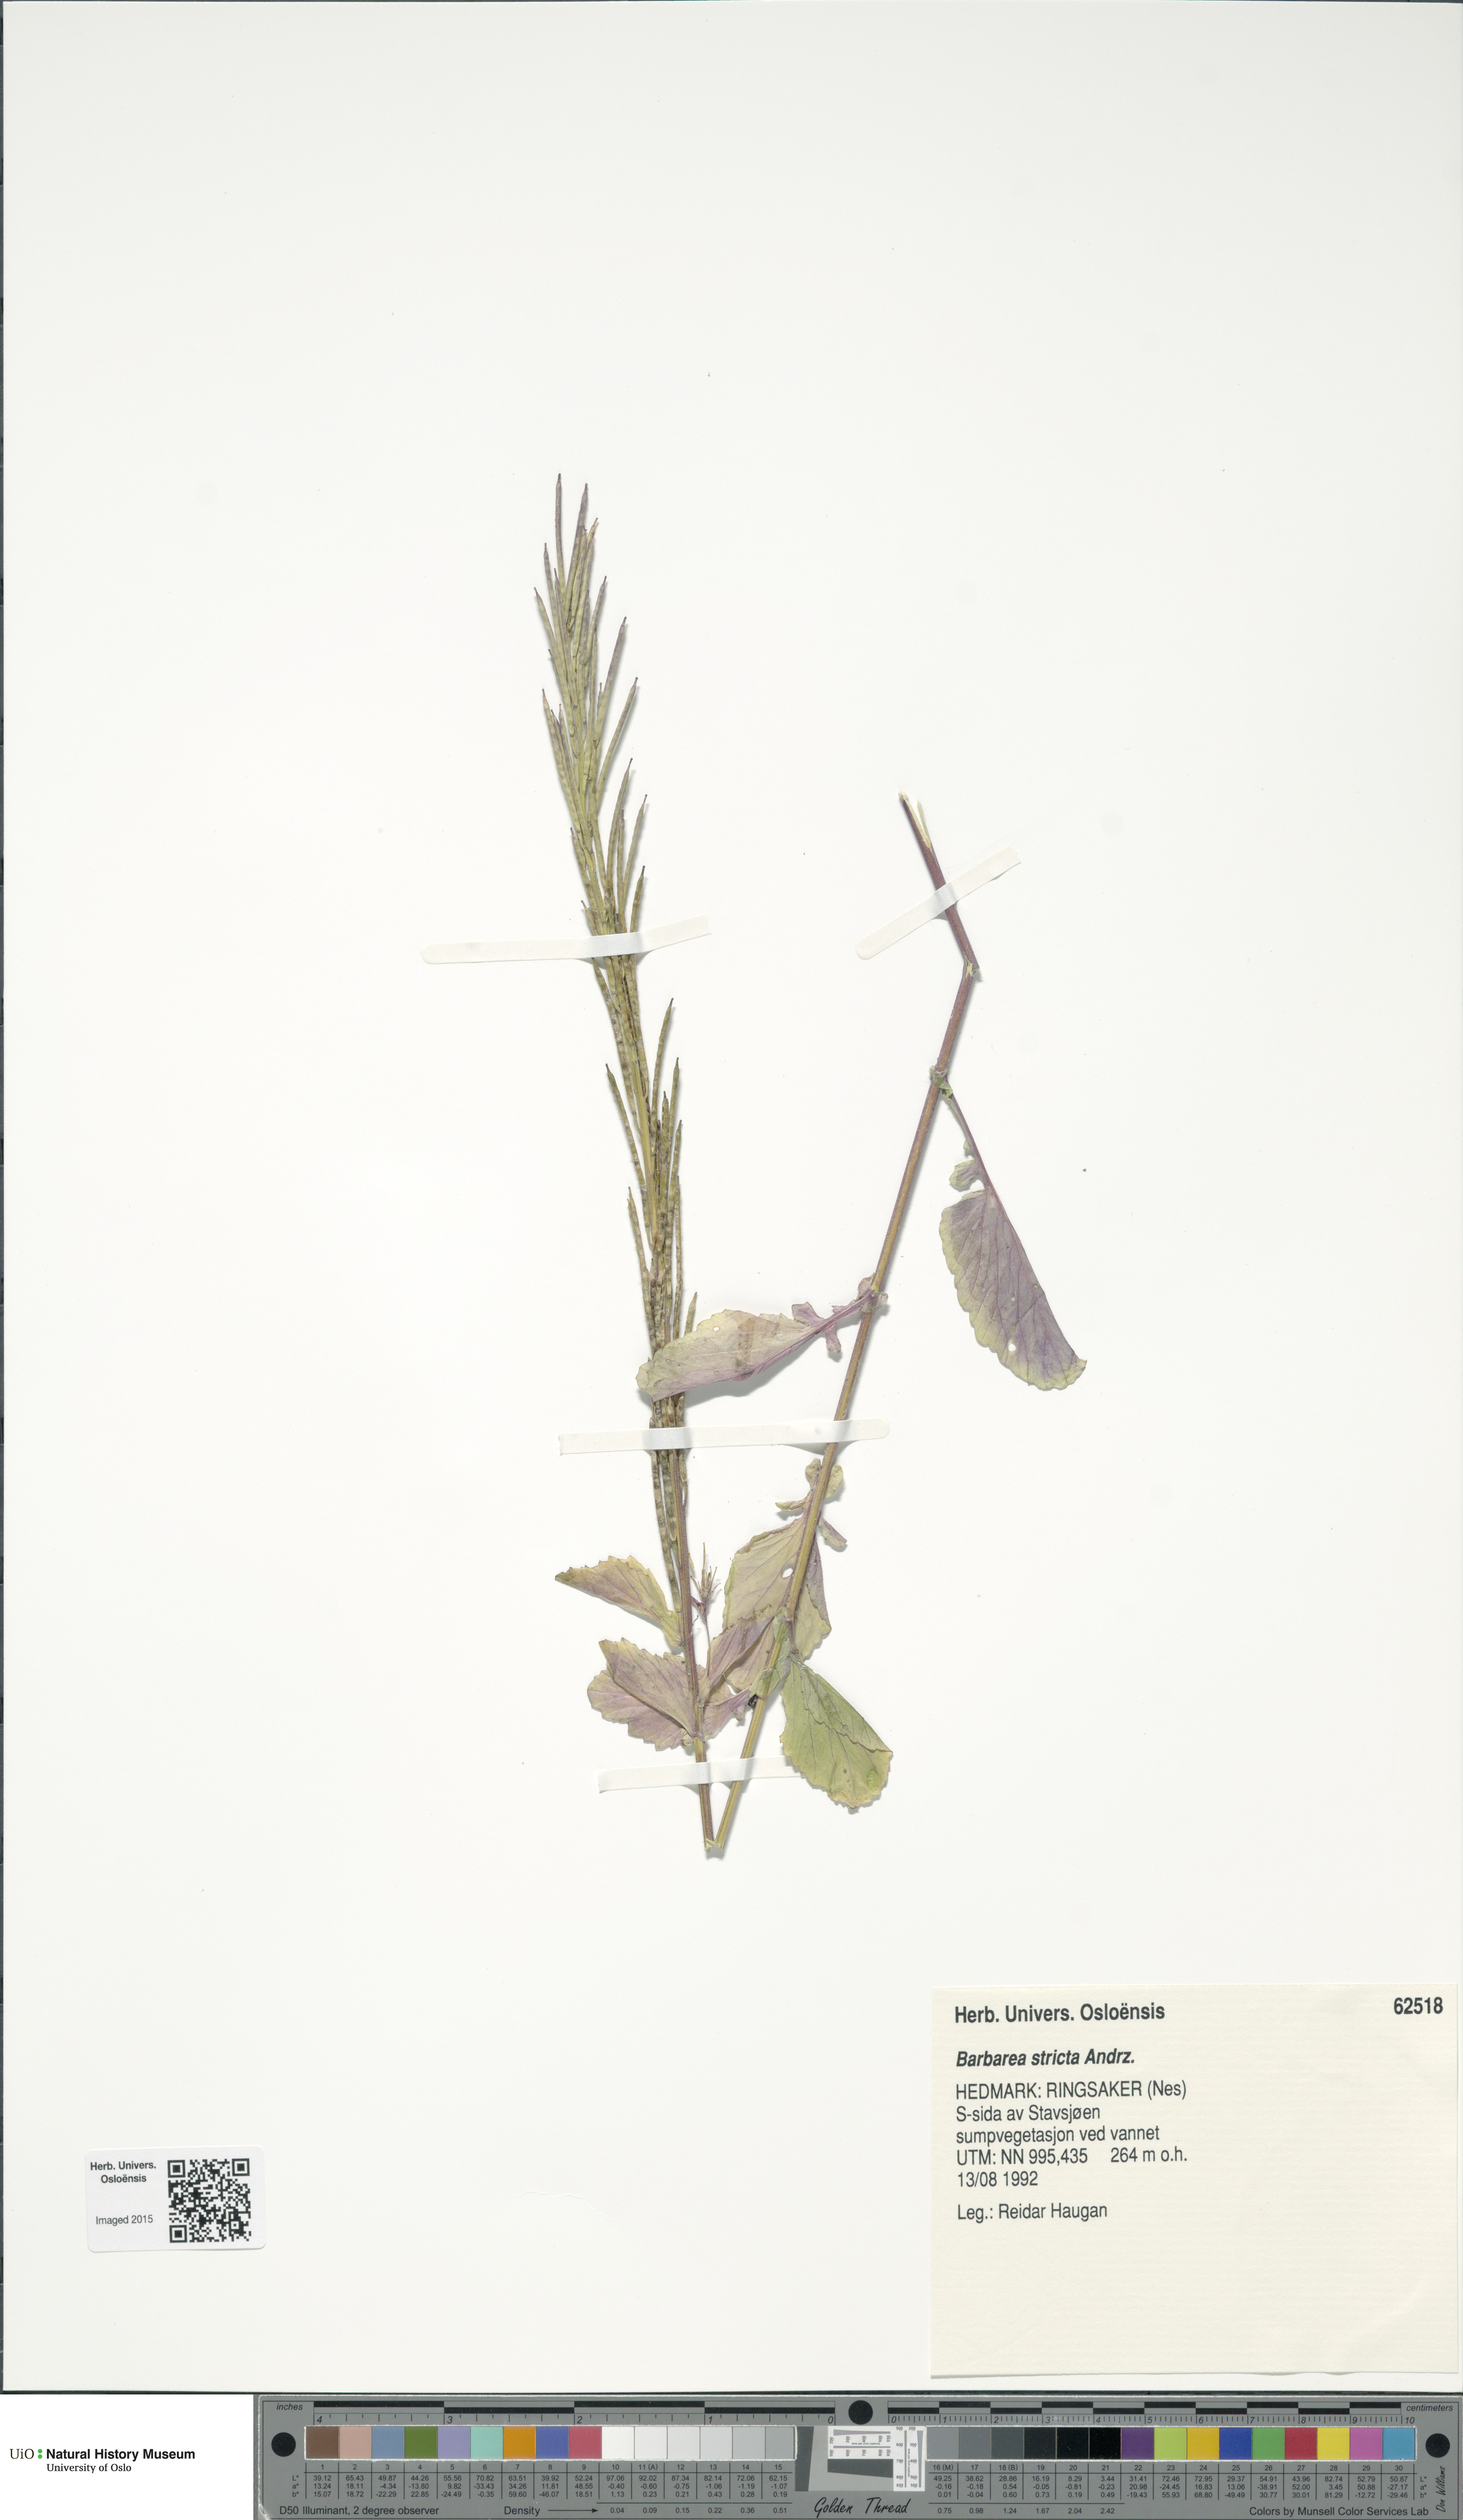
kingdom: Plantae
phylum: Tracheophyta
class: Magnoliopsida
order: Brassicales
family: Brassicaceae
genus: Barbarea
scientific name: Barbarea stricta
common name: Small-flowered winter-cress
